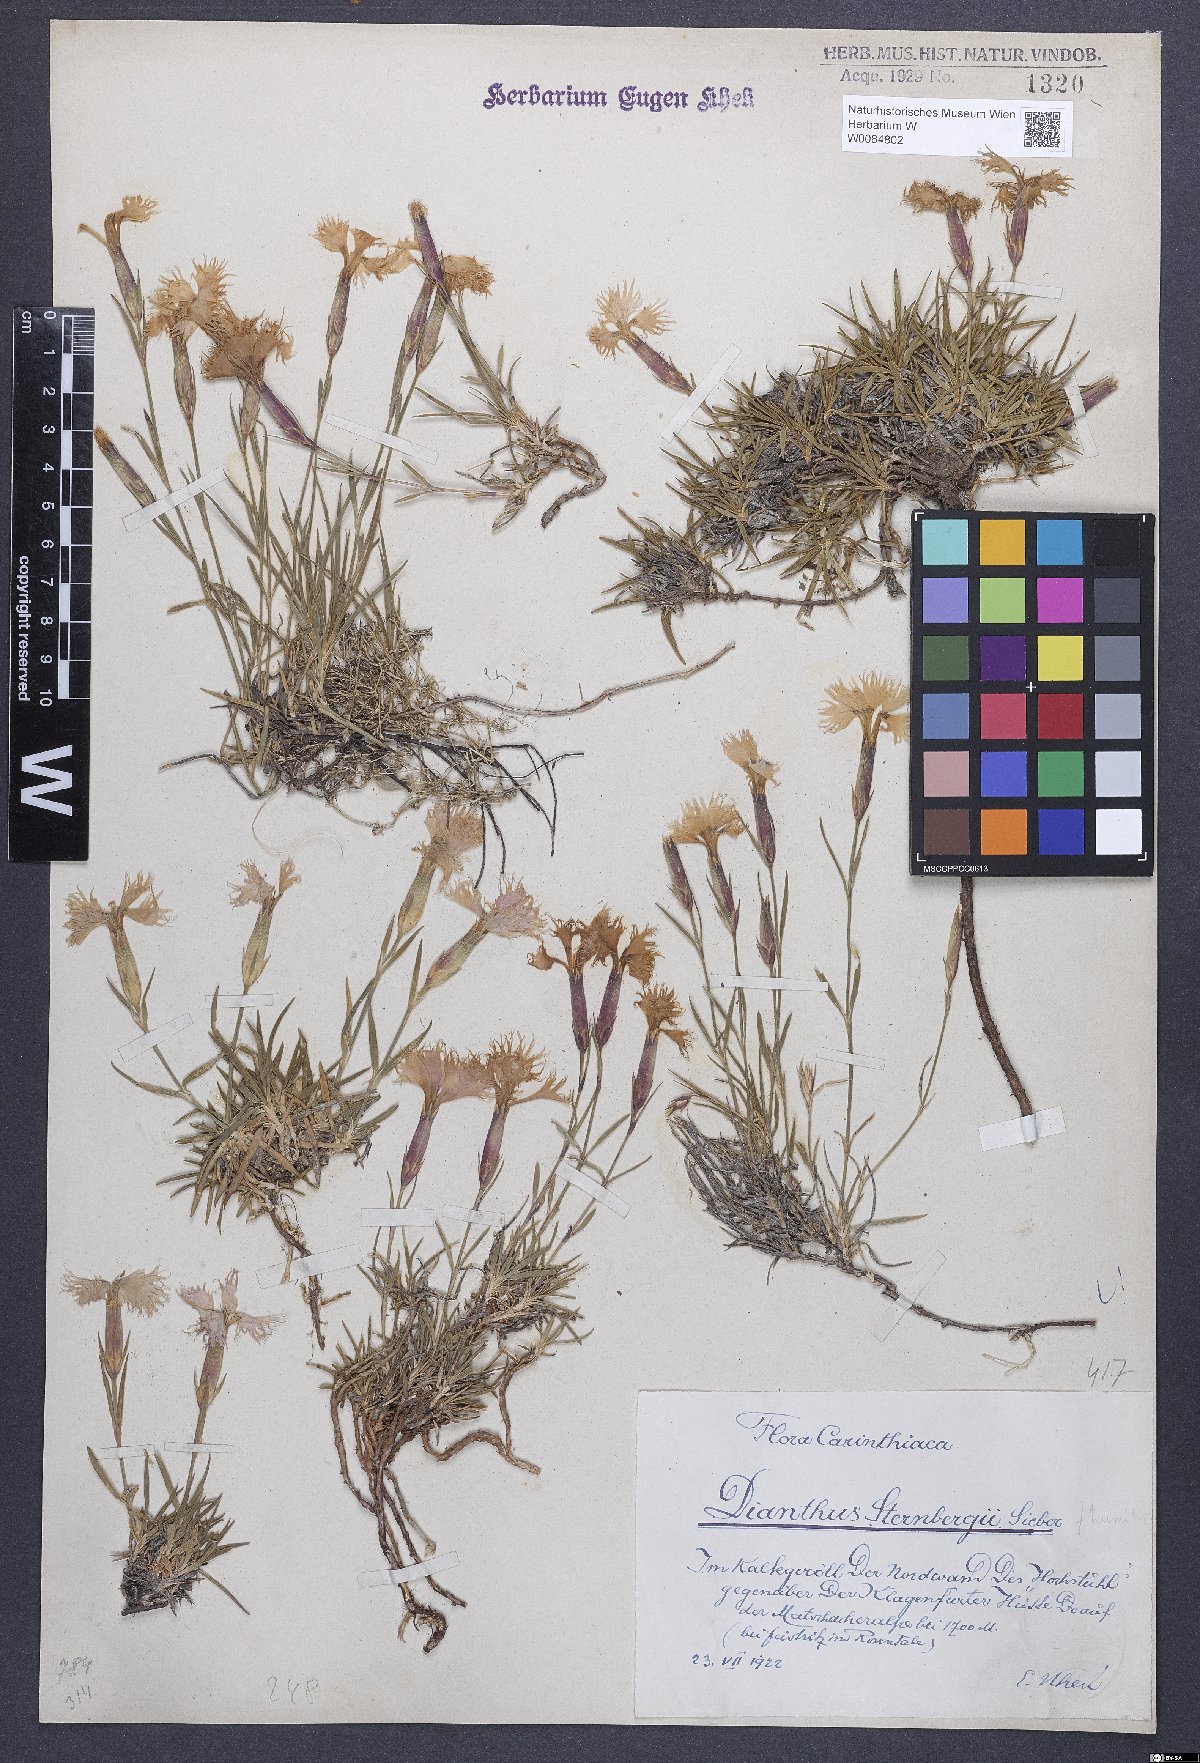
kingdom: Plantae
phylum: Tracheophyta
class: Magnoliopsida
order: Caryophyllales
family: Caryophyllaceae
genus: Dianthus
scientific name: Dianthus monspessulanus
